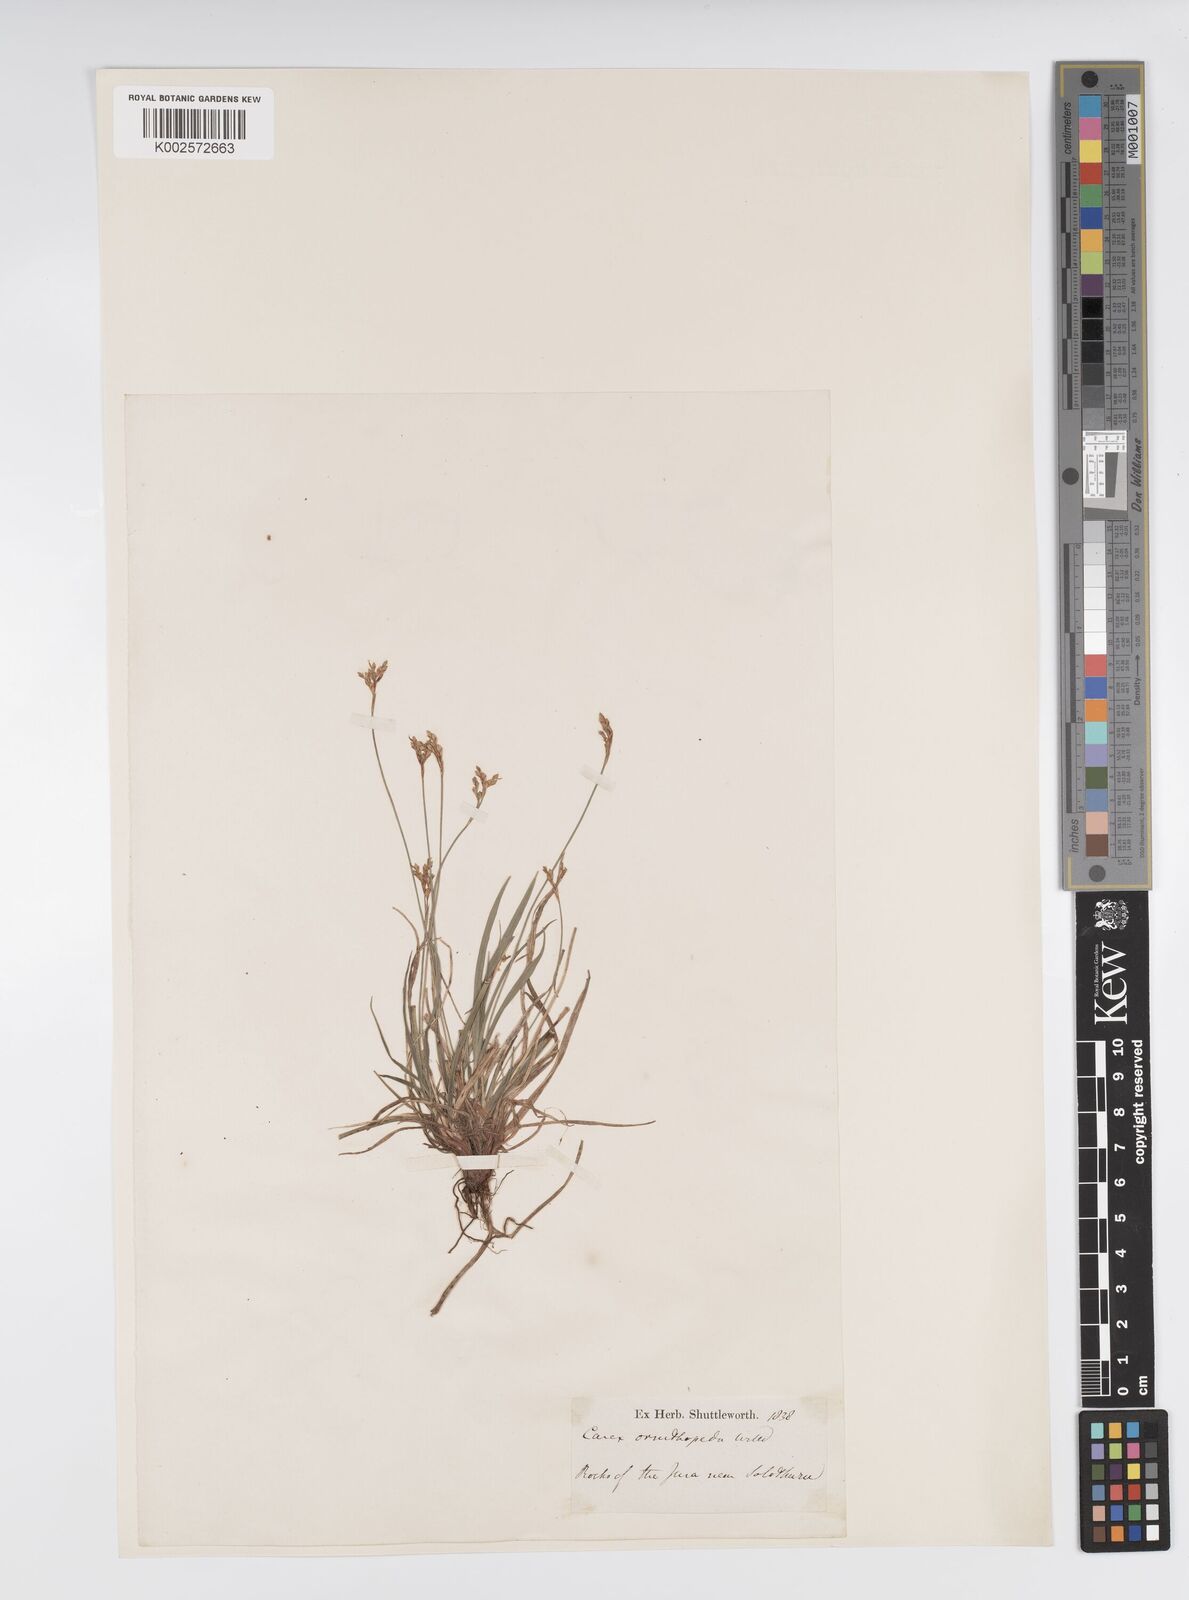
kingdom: Plantae
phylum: Tracheophyta
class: Liliopsida
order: Poales
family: Cyperaceae
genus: Carex
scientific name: Carex ornithopoda
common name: Bird's-foot sedge
